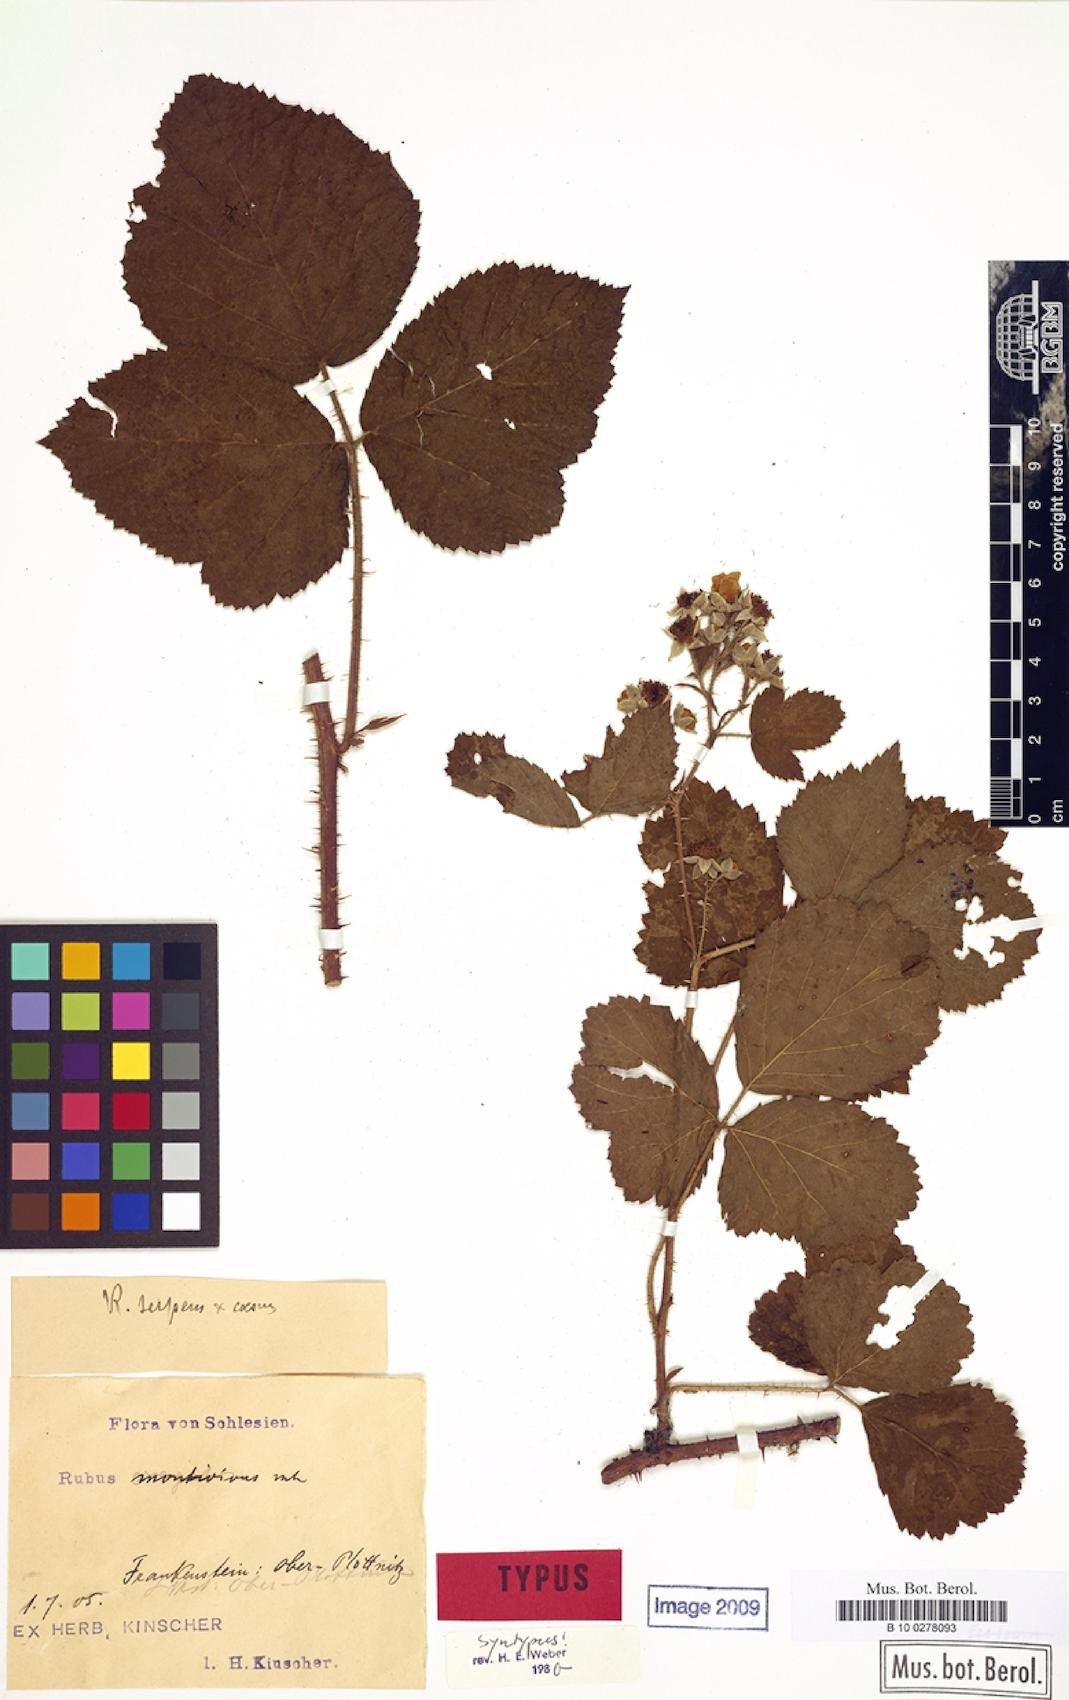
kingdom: Plantae
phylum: Tracheophyta
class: Magnoliopsida
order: Rosales
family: Rosaceae
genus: Rubus
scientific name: Rubus dollnensis
